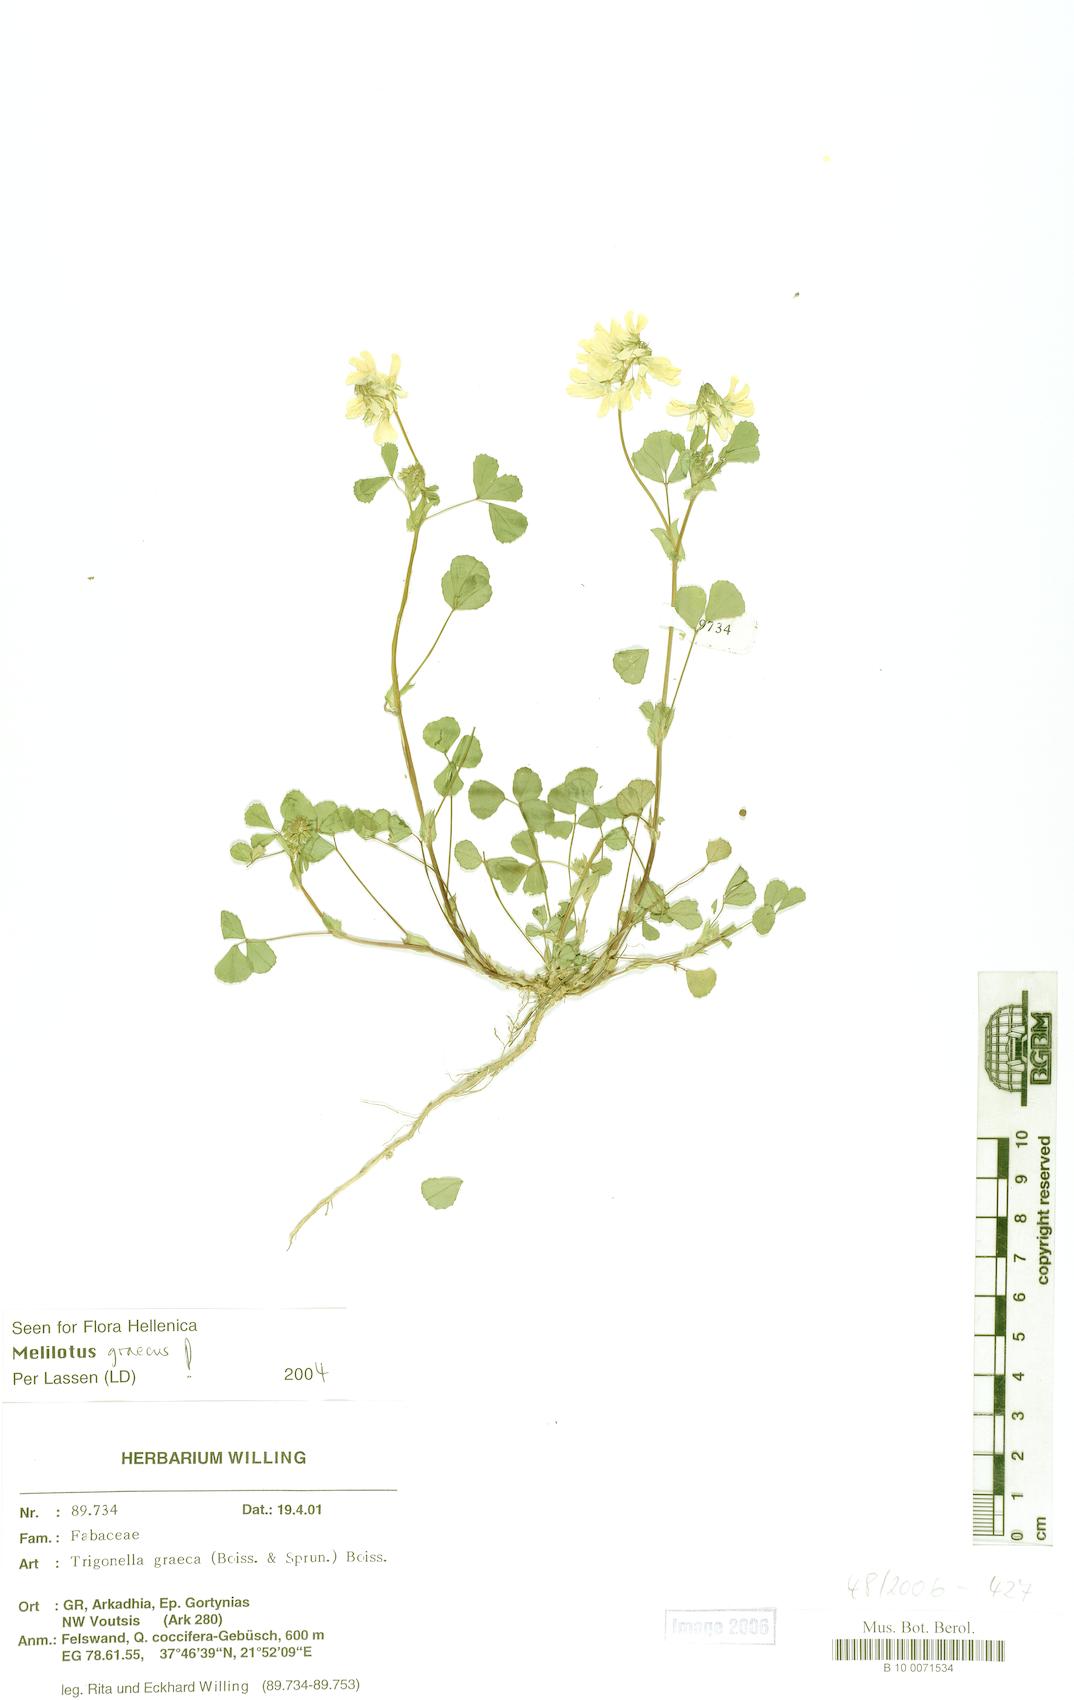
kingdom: Plantae
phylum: Tracheophyta
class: Magnoliopsida
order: Fabales
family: Fabaceae
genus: Trigonella
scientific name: Trigonella graeca
